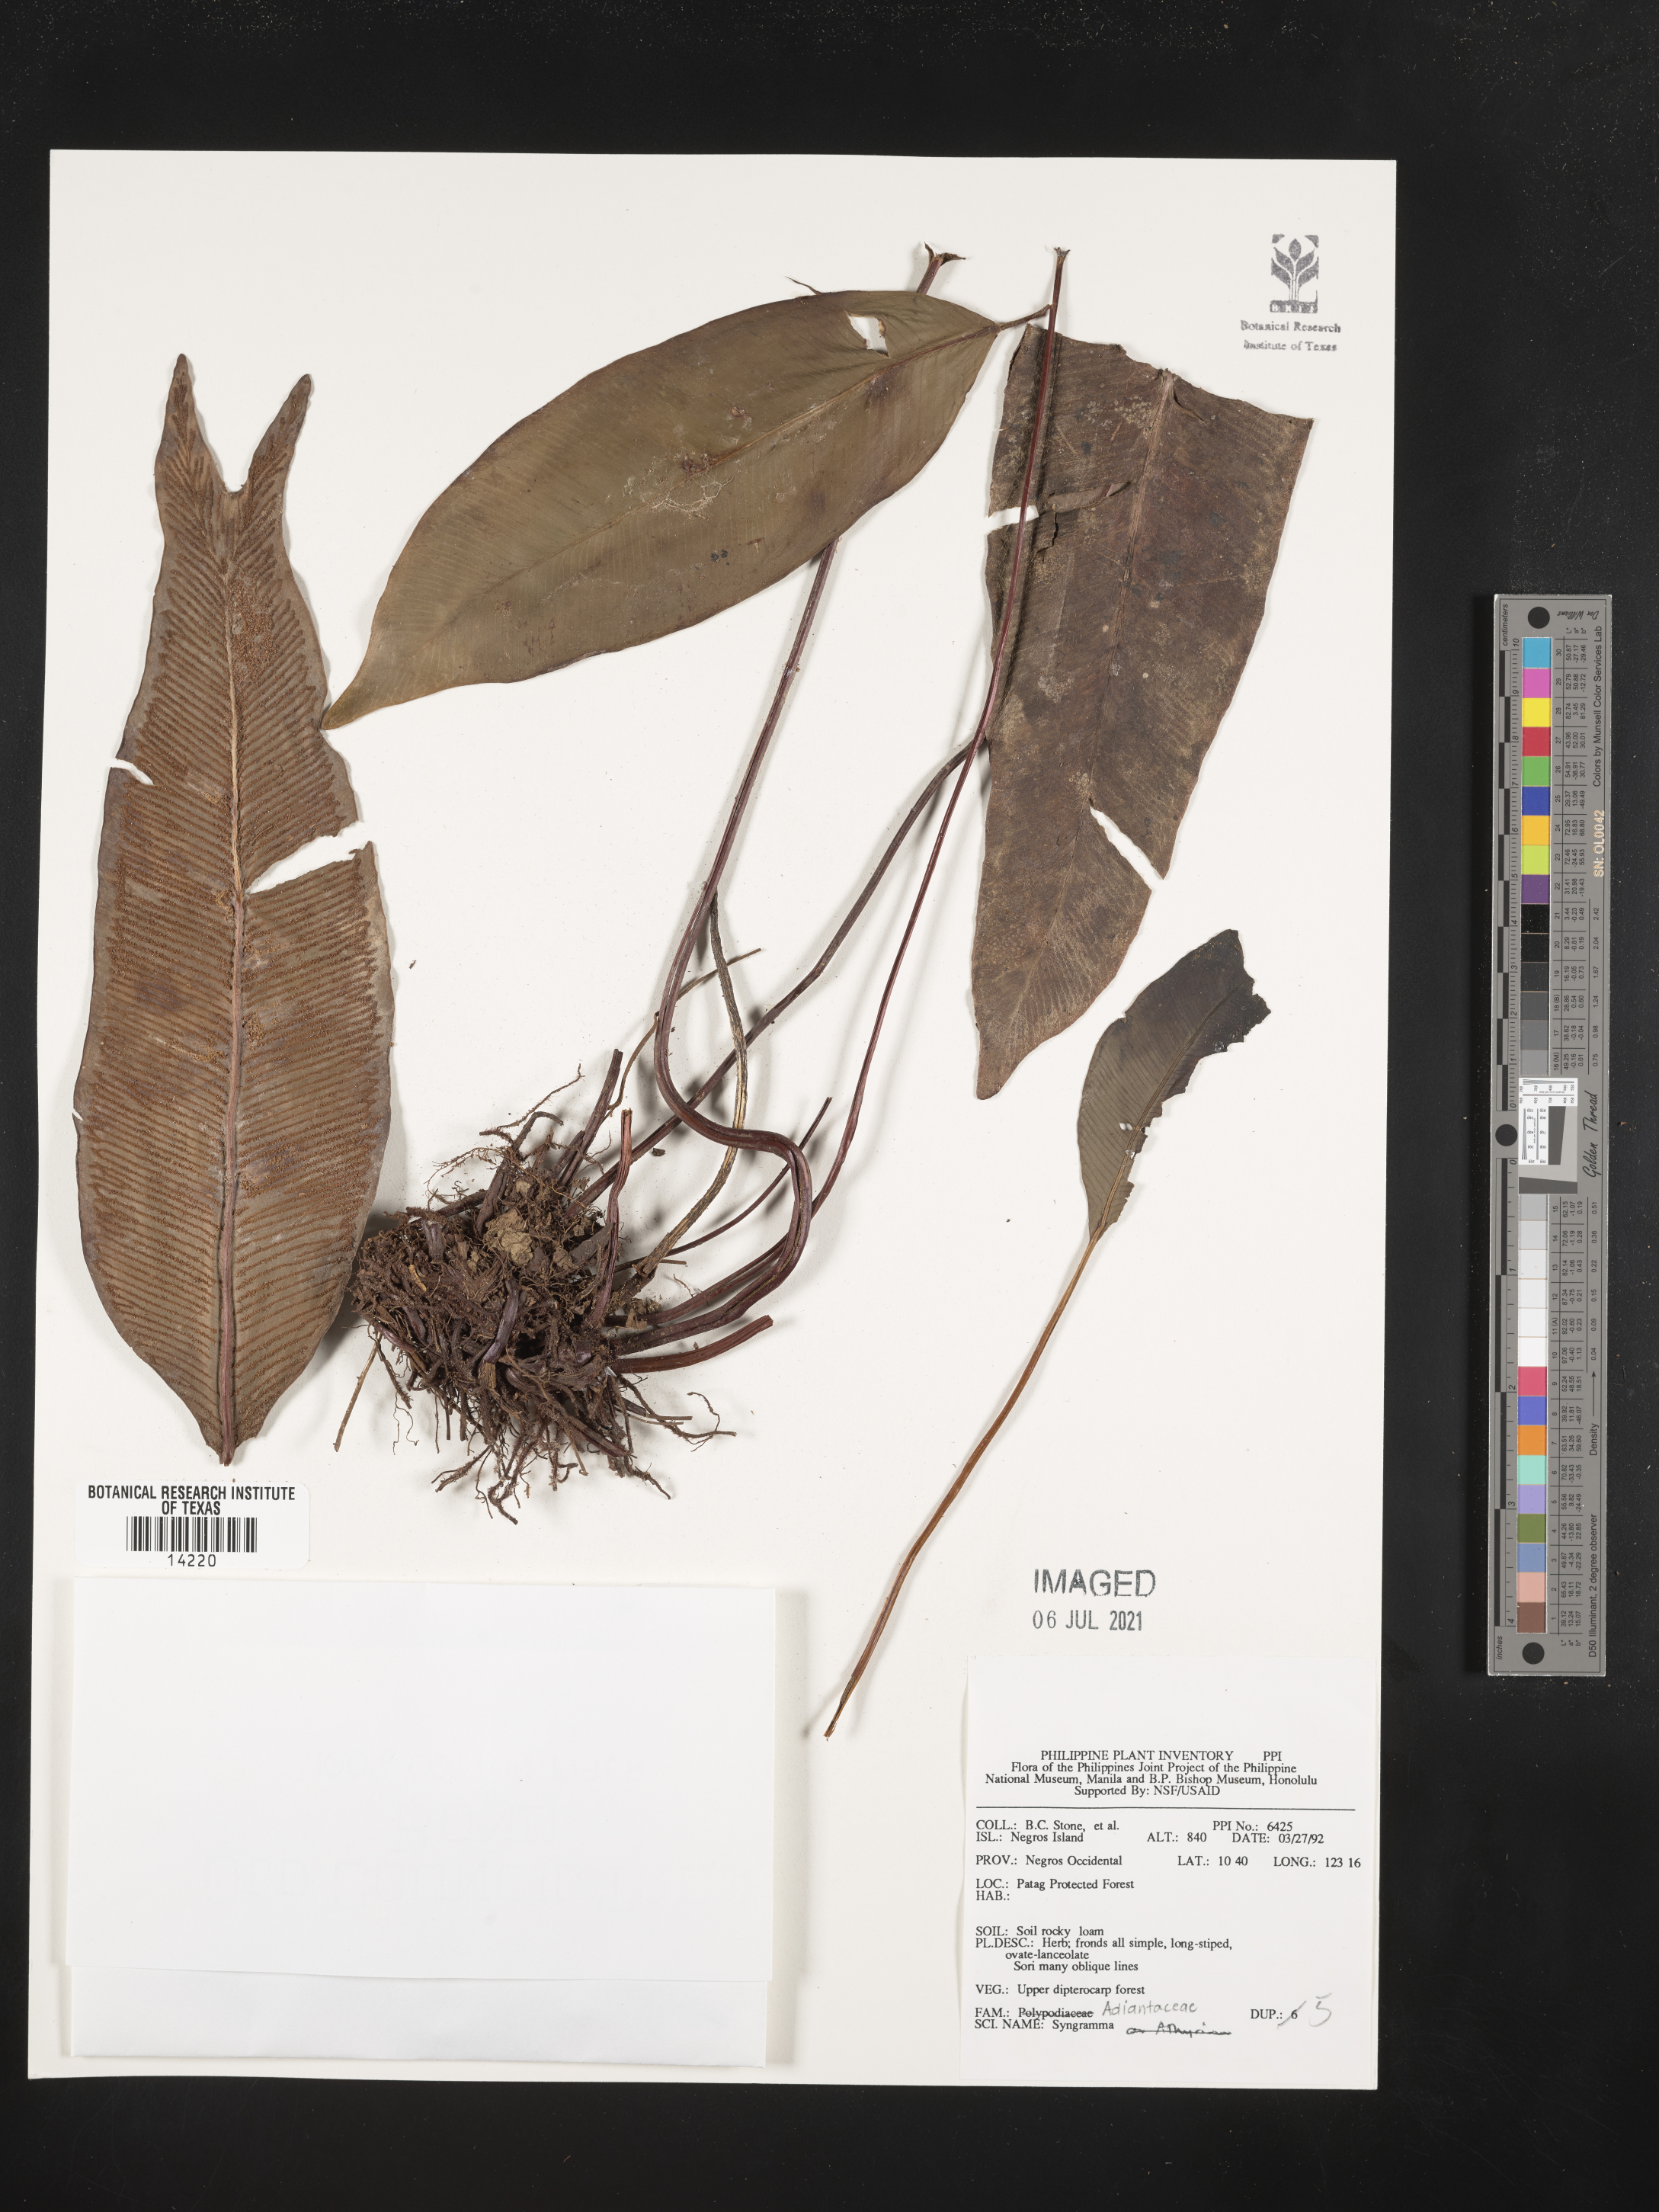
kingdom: Plantae
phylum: Tracheophyta
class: Polypodiopsida
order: Polypodiales
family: Pteridaceae
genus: Syngramma
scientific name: Syngramma
